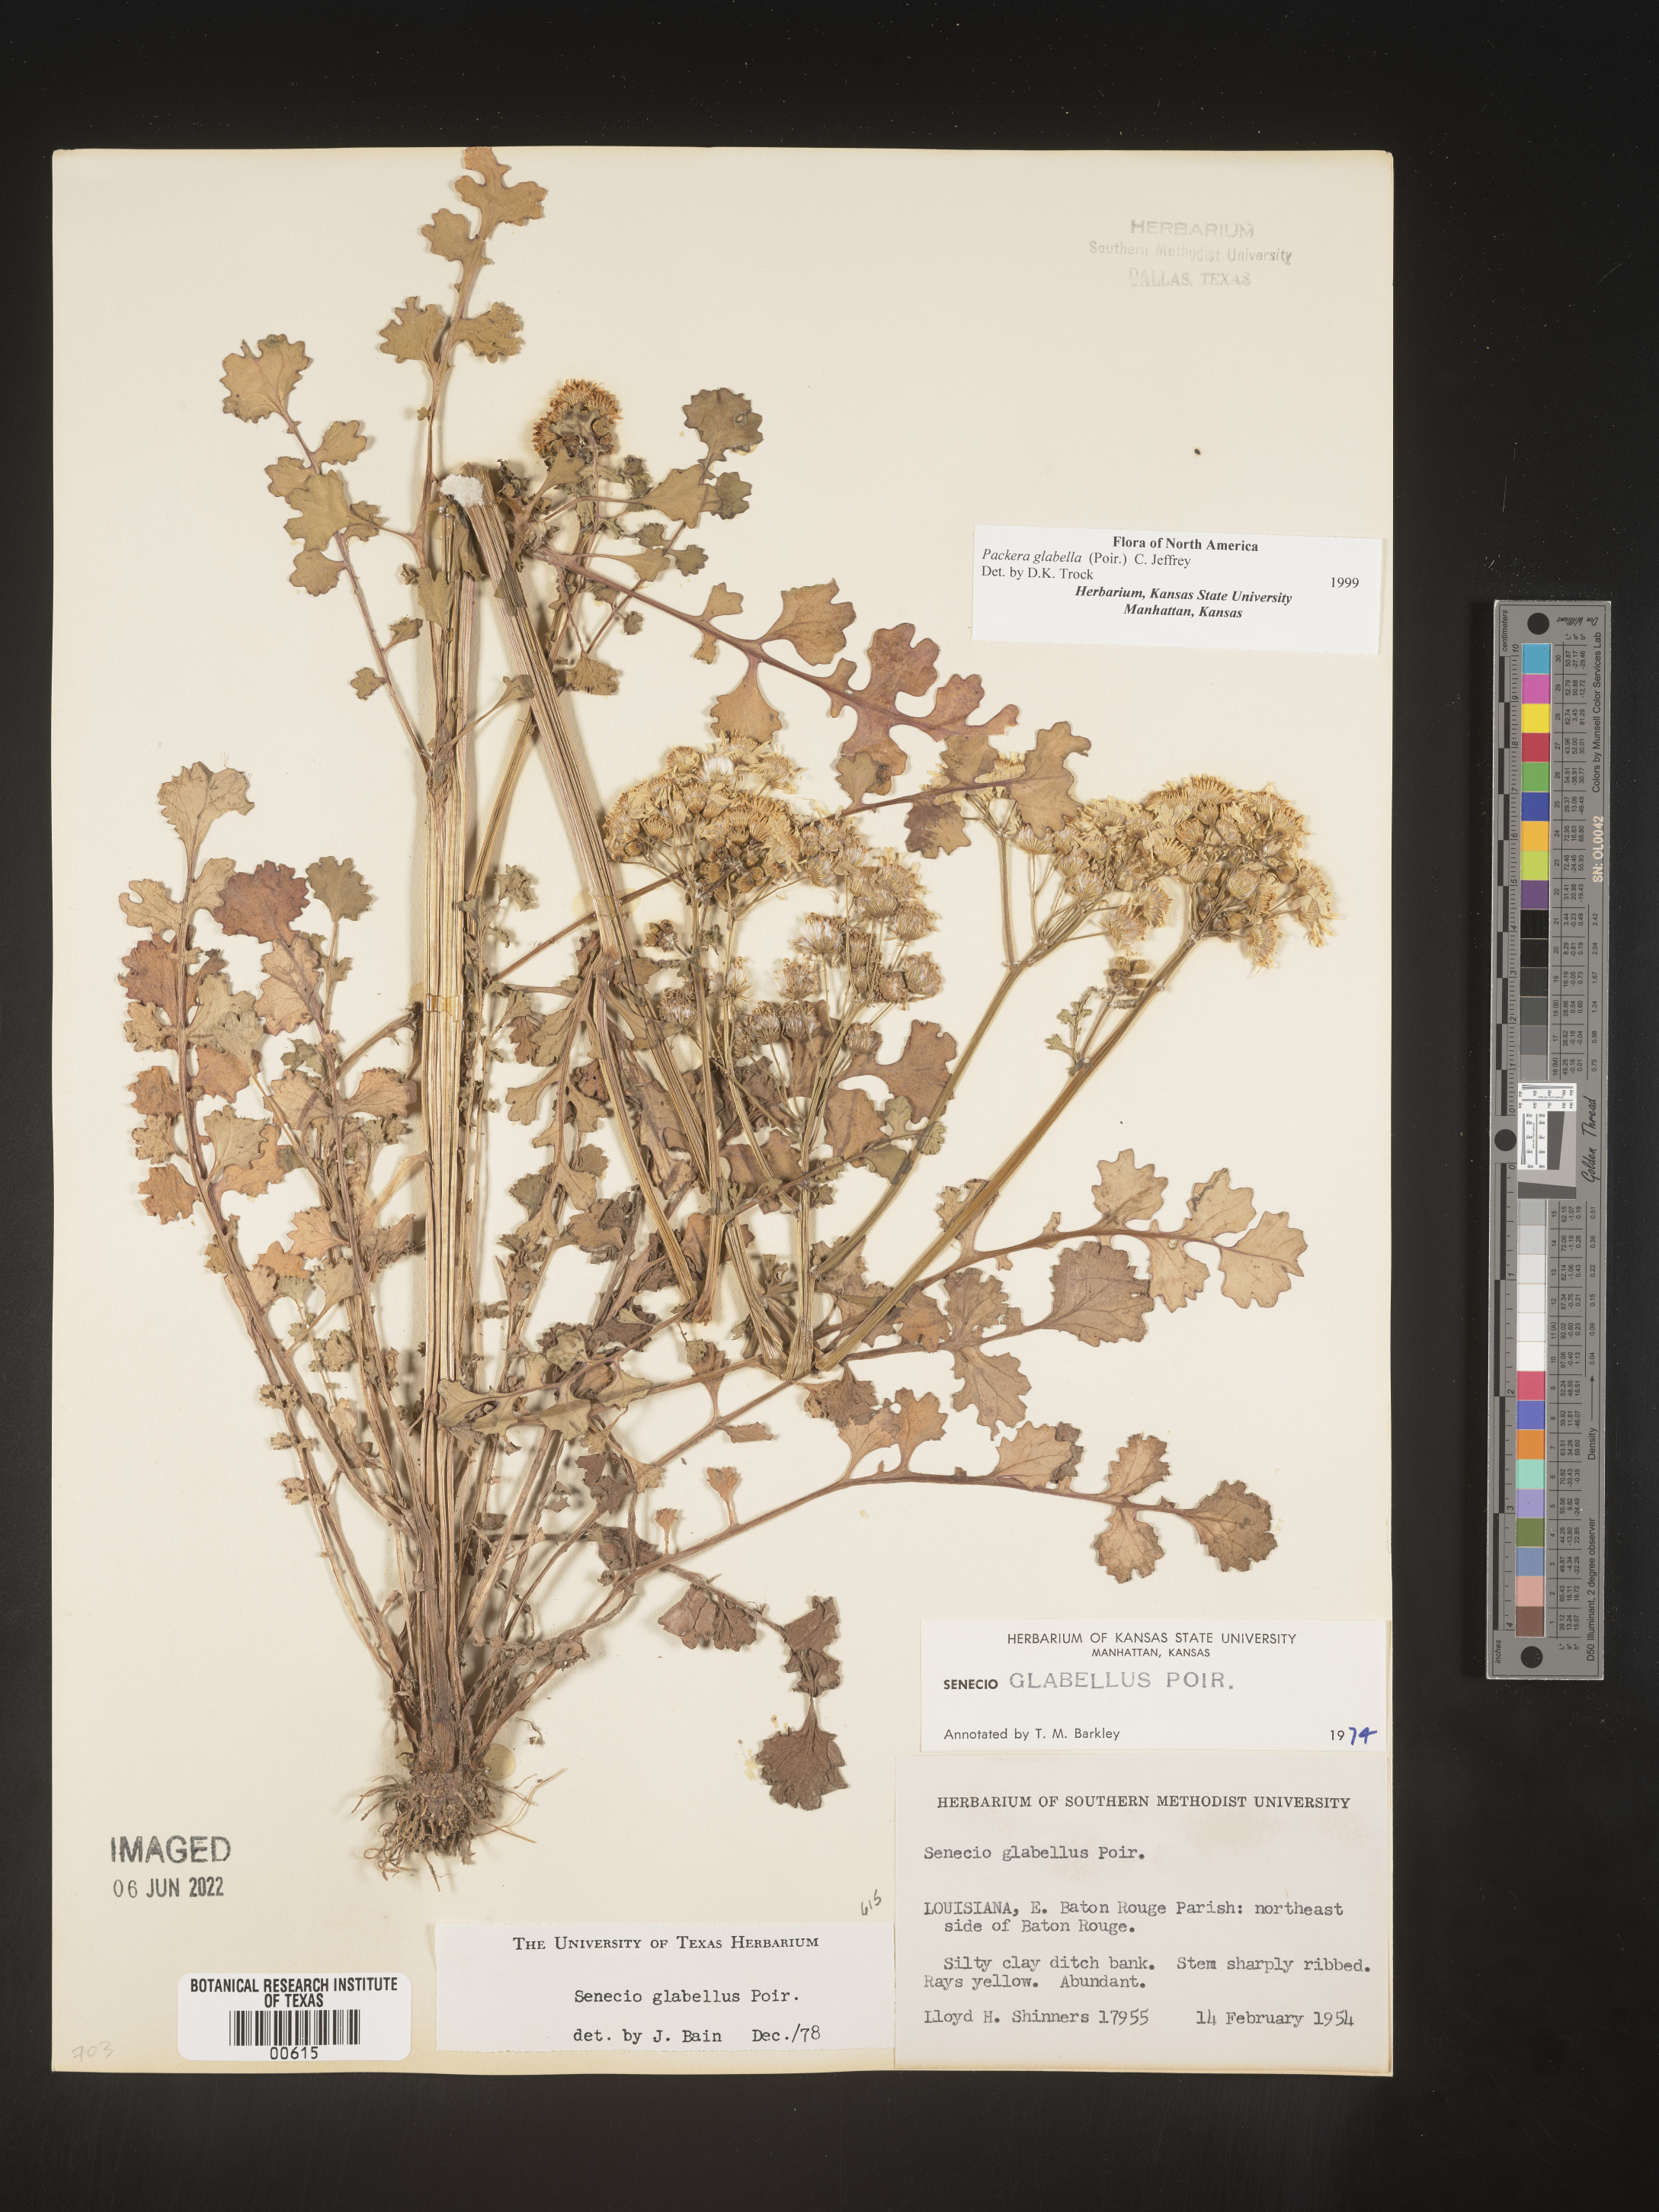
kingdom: Plantae
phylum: Tracheophyta
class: Magnoliopsida
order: Asterales
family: Asteraceae
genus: Packera
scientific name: Packera glabella
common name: Butterweed
